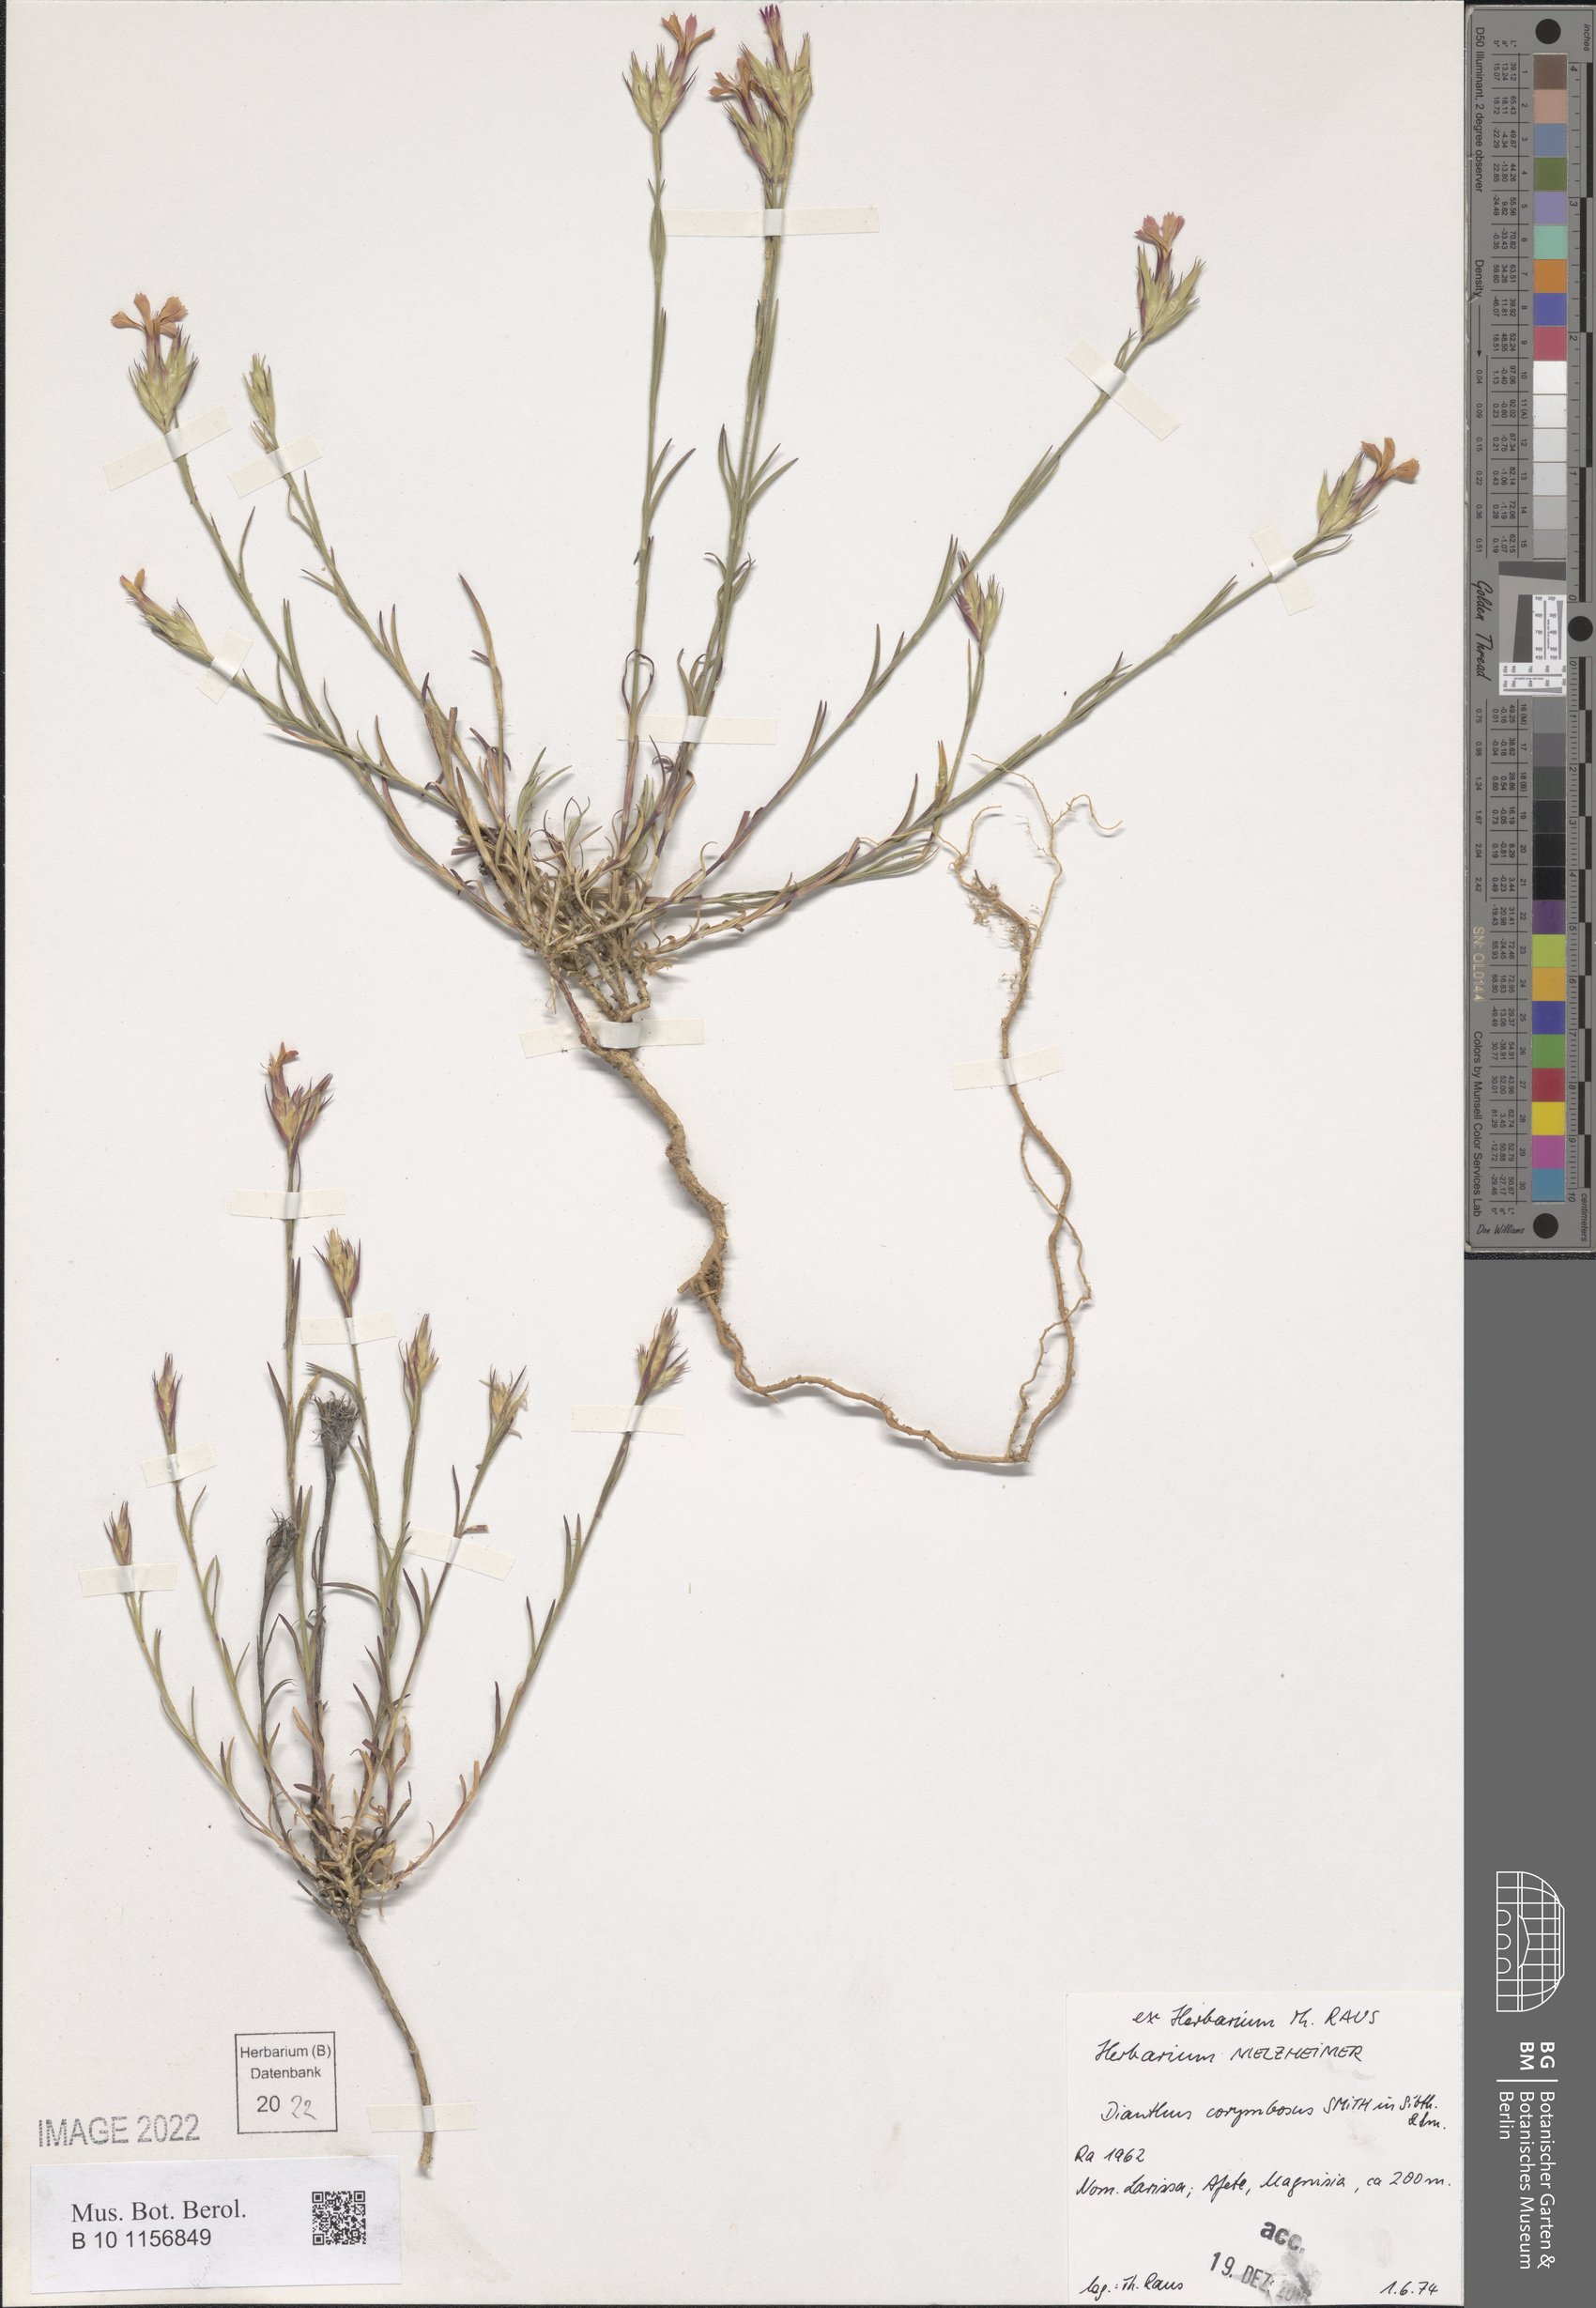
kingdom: Plantae
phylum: Tracheophyta
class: Magnoliopsida
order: Caryophyllales
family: Caryophyllaceae
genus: Dianthus
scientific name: Dianthus corymbosus
